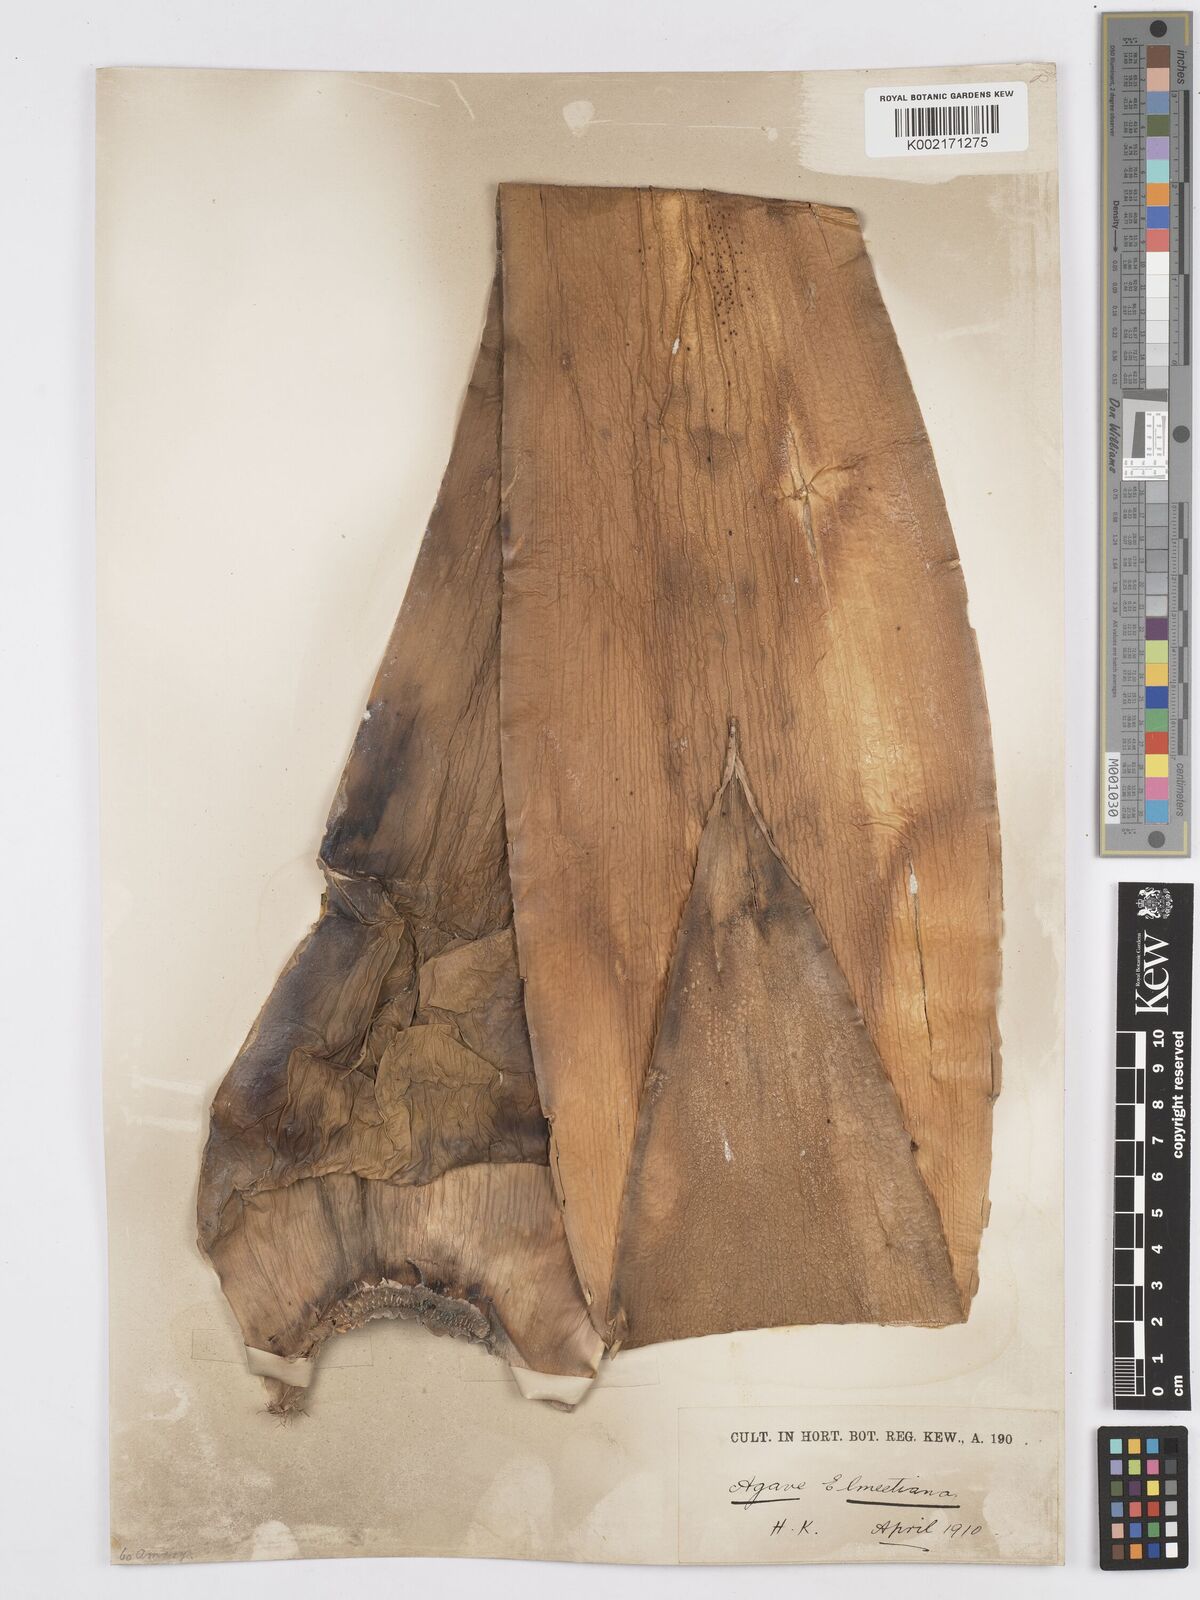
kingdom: Plantae
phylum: Tracheophyta
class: Liliopsida
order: Asparagales
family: Asparagaceae
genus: Agave
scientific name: Agave ellemeetiana
